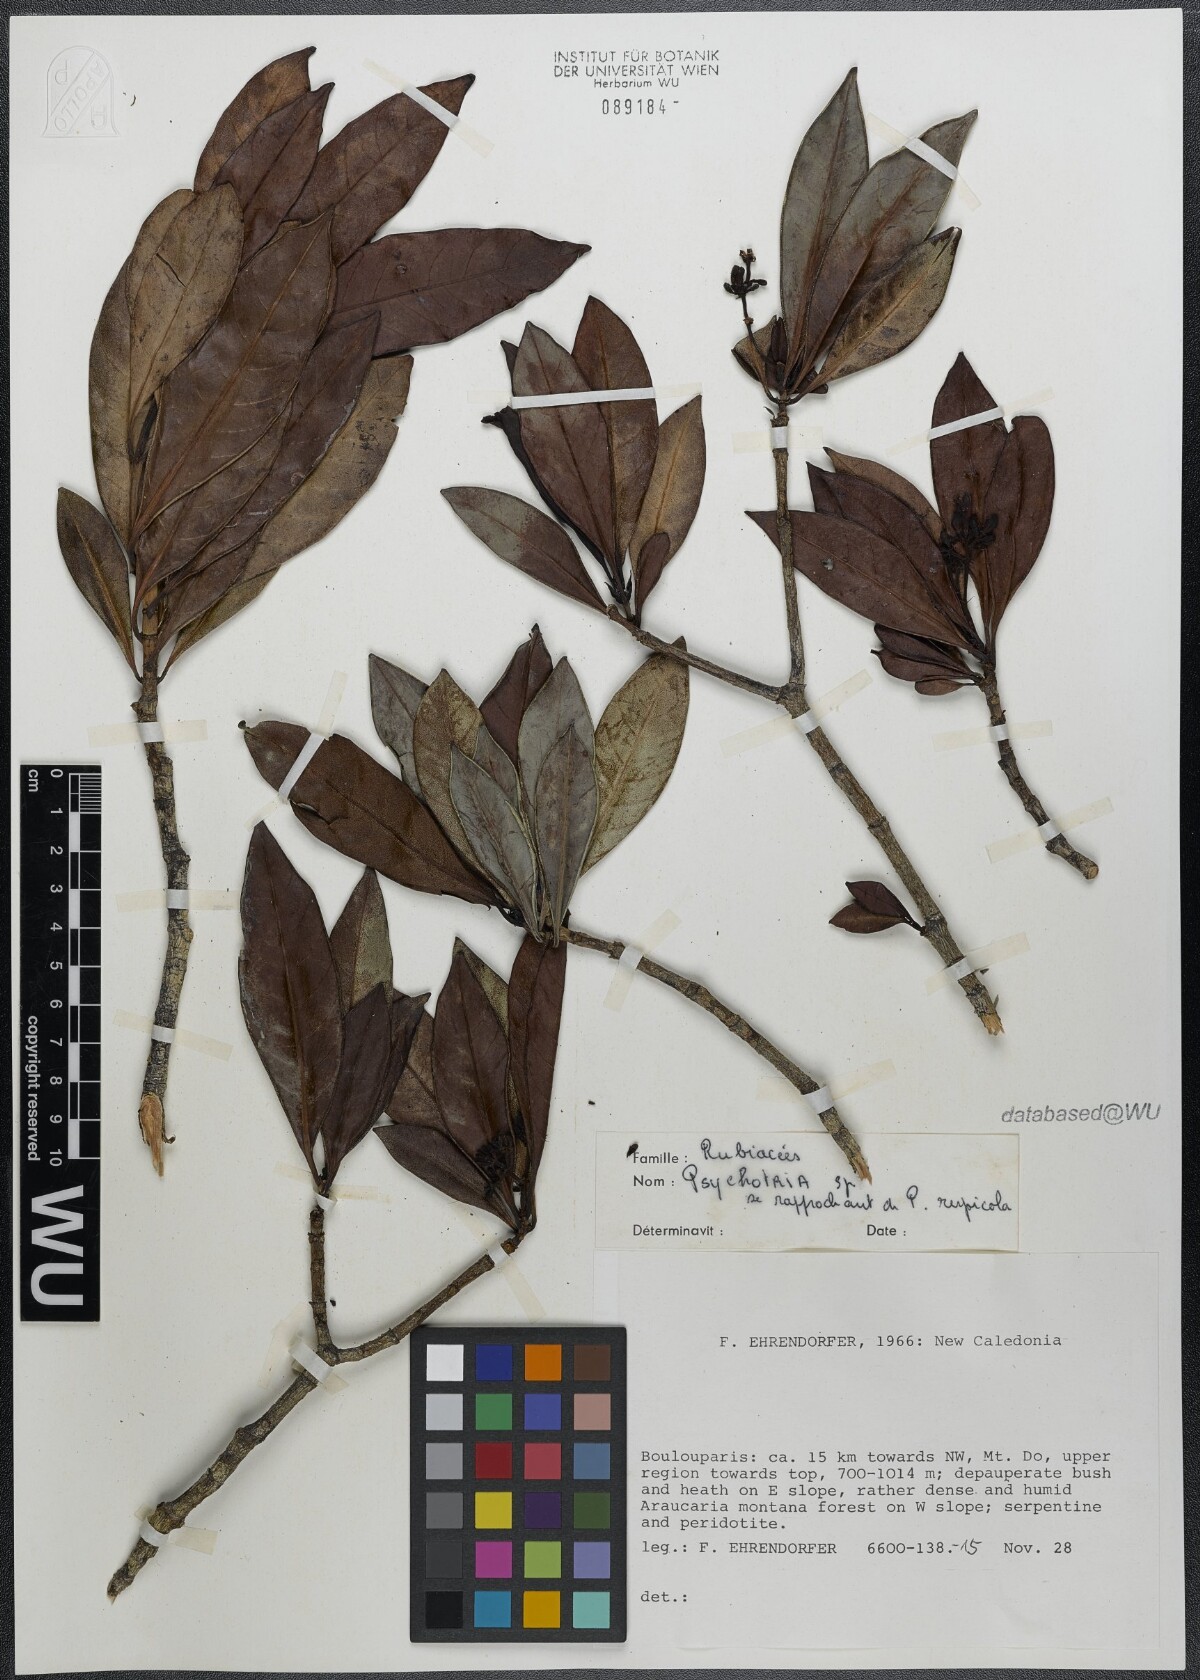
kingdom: Plantae
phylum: Tracheophyta
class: Magnoliopsida
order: Gentianales
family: Rubiaceae
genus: Psychotria
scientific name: Psychotria
